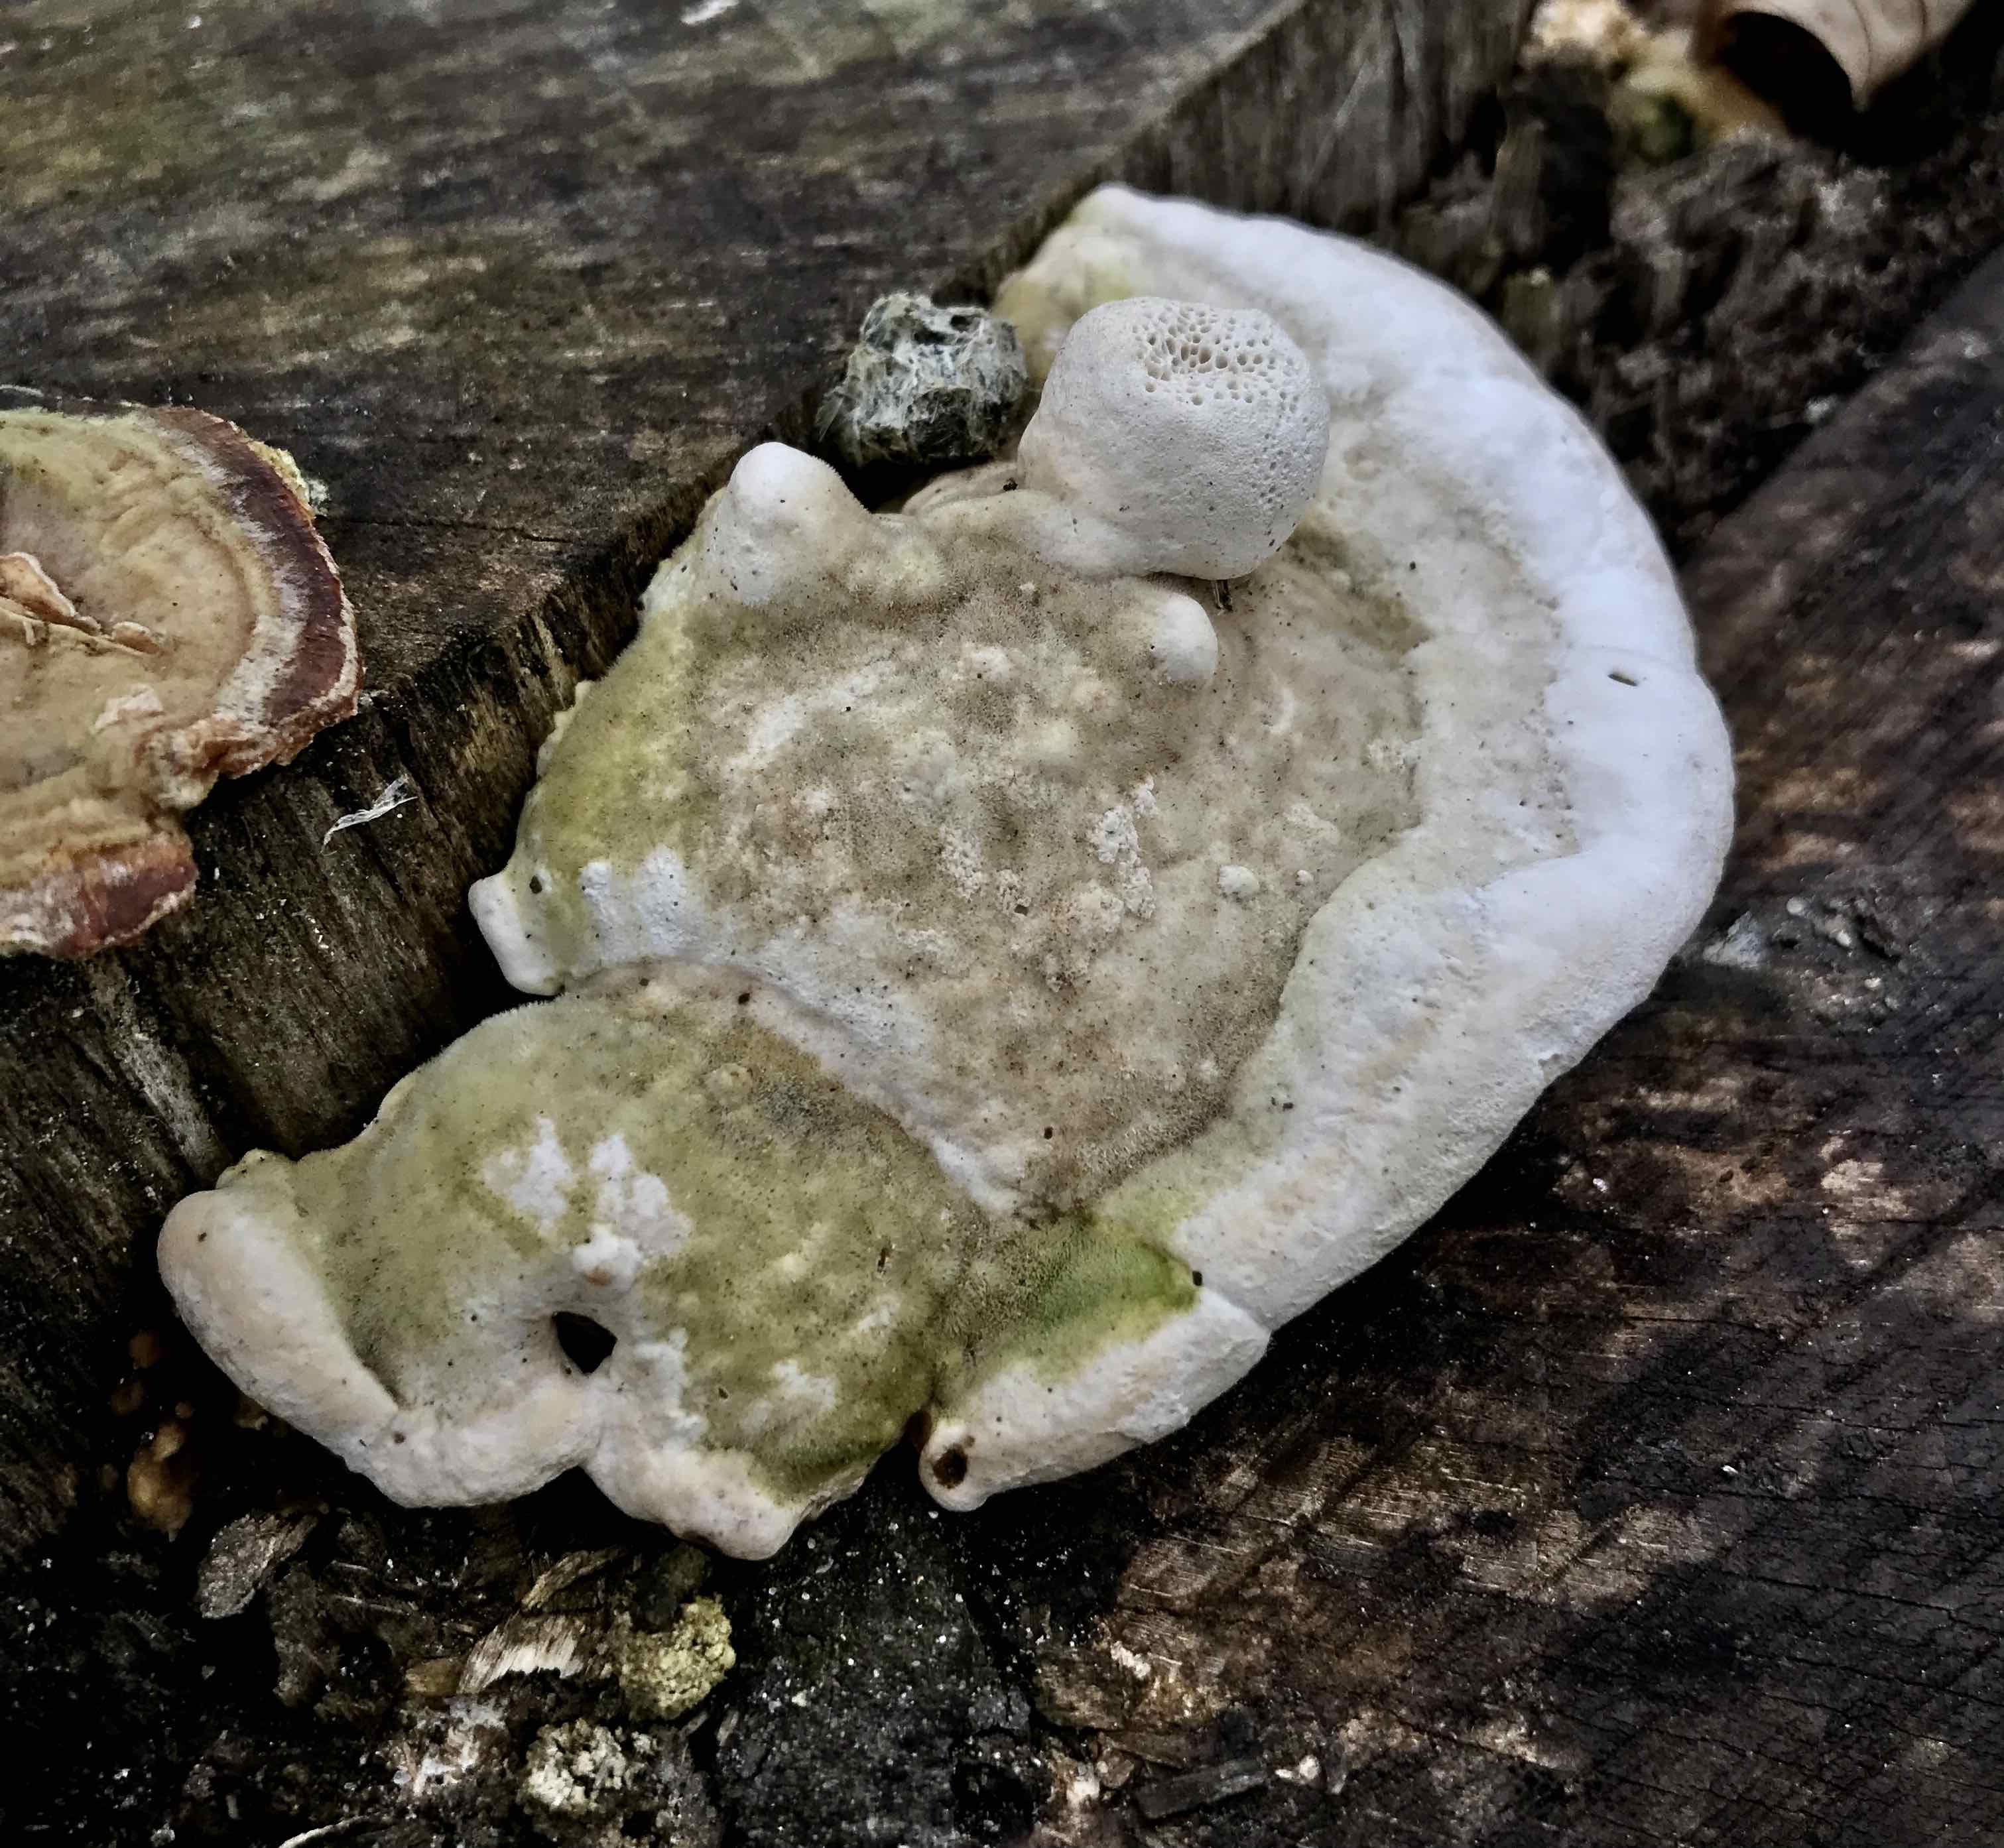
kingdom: Fungi
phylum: Basidiomycota
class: Agaricomycetes
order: Polyporales
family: Polyporaceae
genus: Trametes
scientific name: Trametes gibbosa
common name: puklet læderporesvamp
